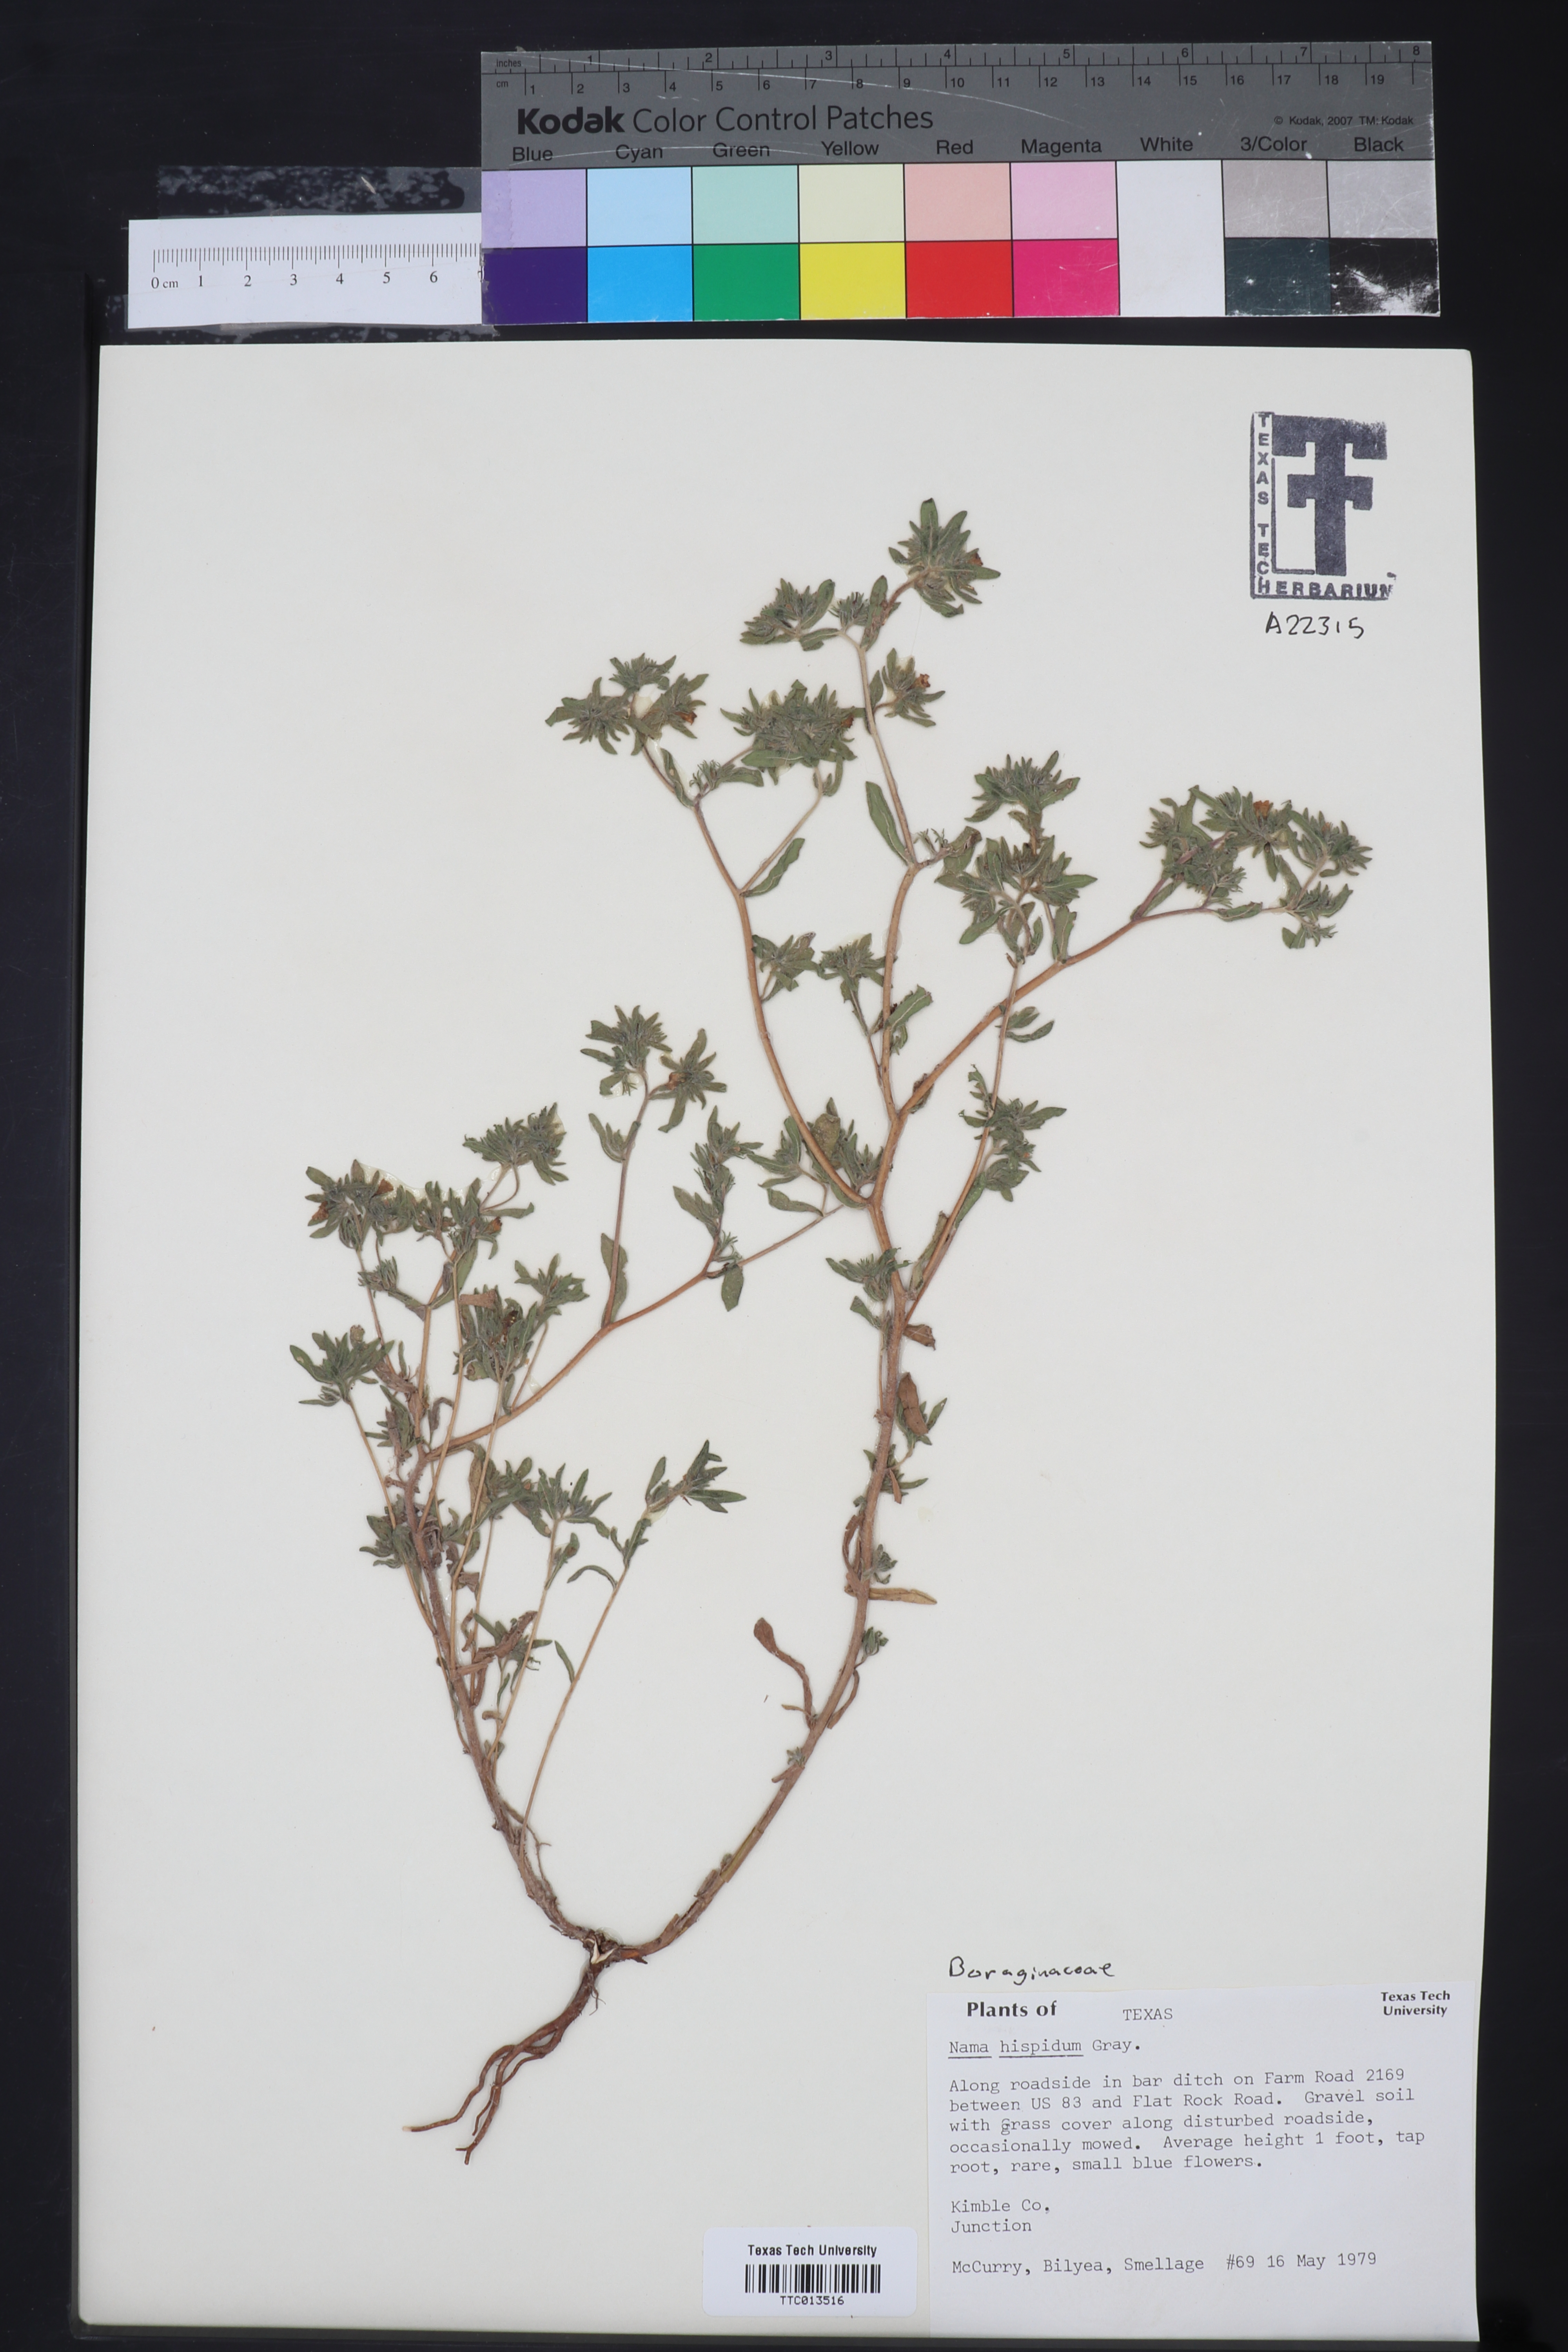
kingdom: Plantae
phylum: Tracheophyta
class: Magnoliopsida
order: Boraginales
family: Namaceae
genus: Nama
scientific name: Nama hispida
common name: Bristly nama
